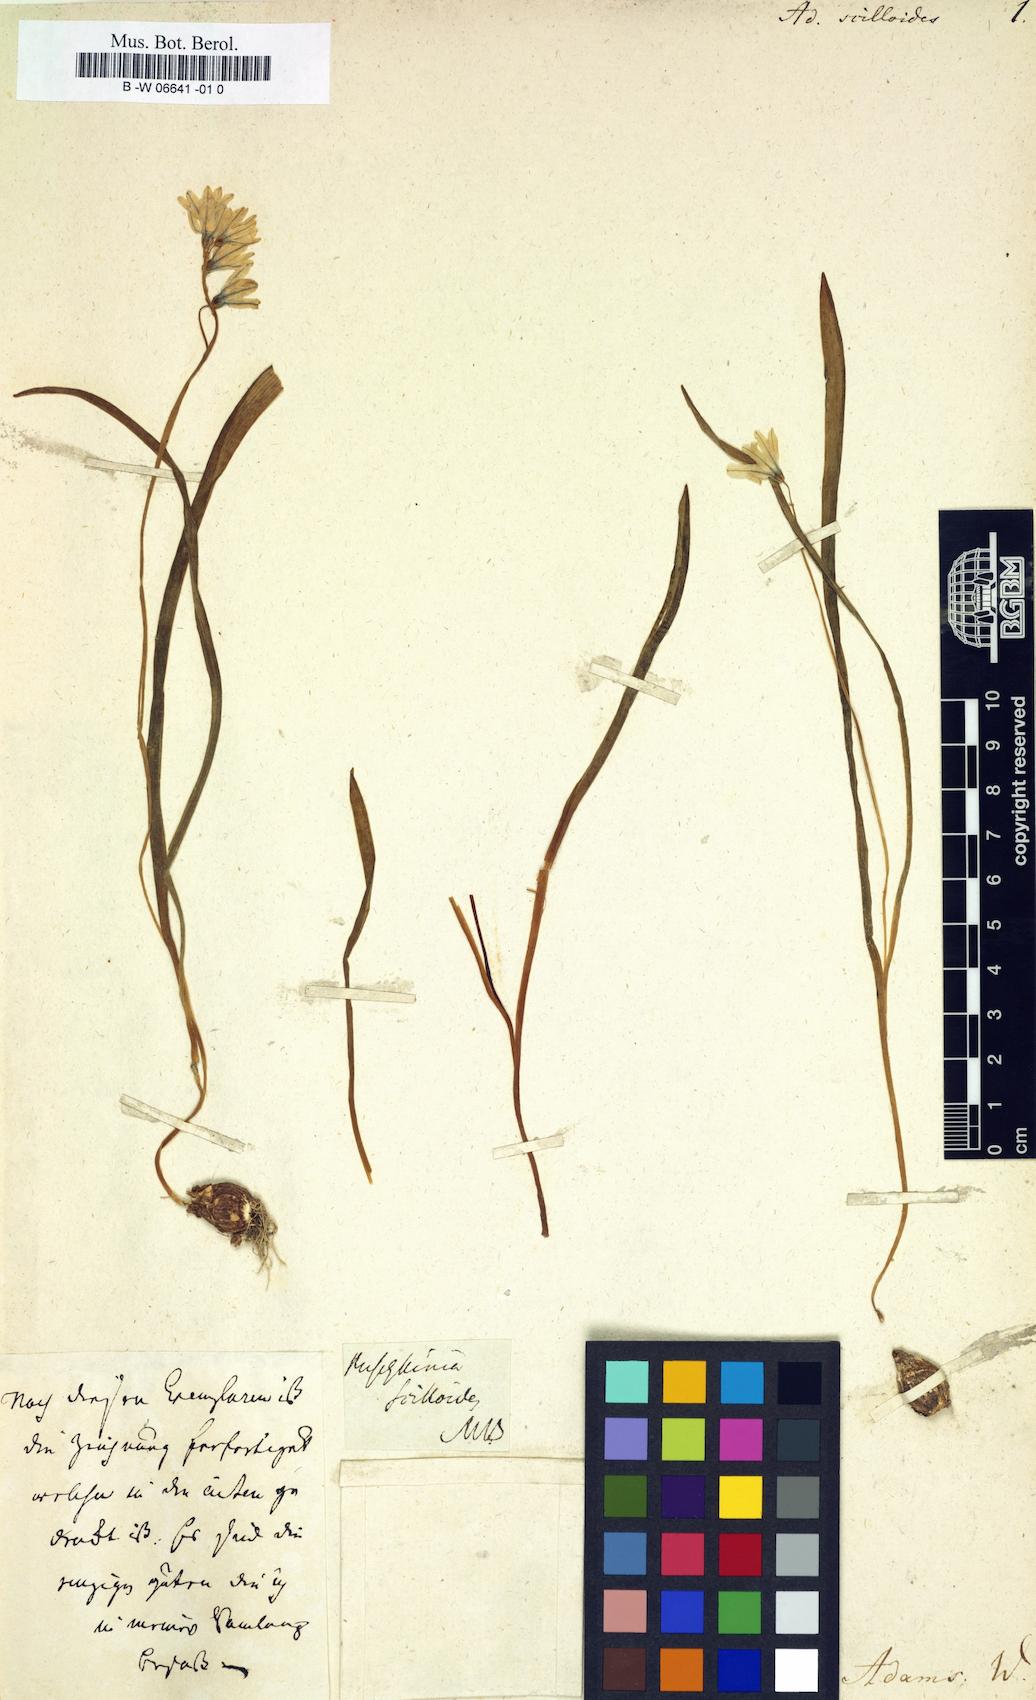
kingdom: Plantae
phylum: Tracheophyta
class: Liliopsida
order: Asparagales
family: Asparagaceae
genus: Puschkinia
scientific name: Puschkinia scilloides
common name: Striped squill
